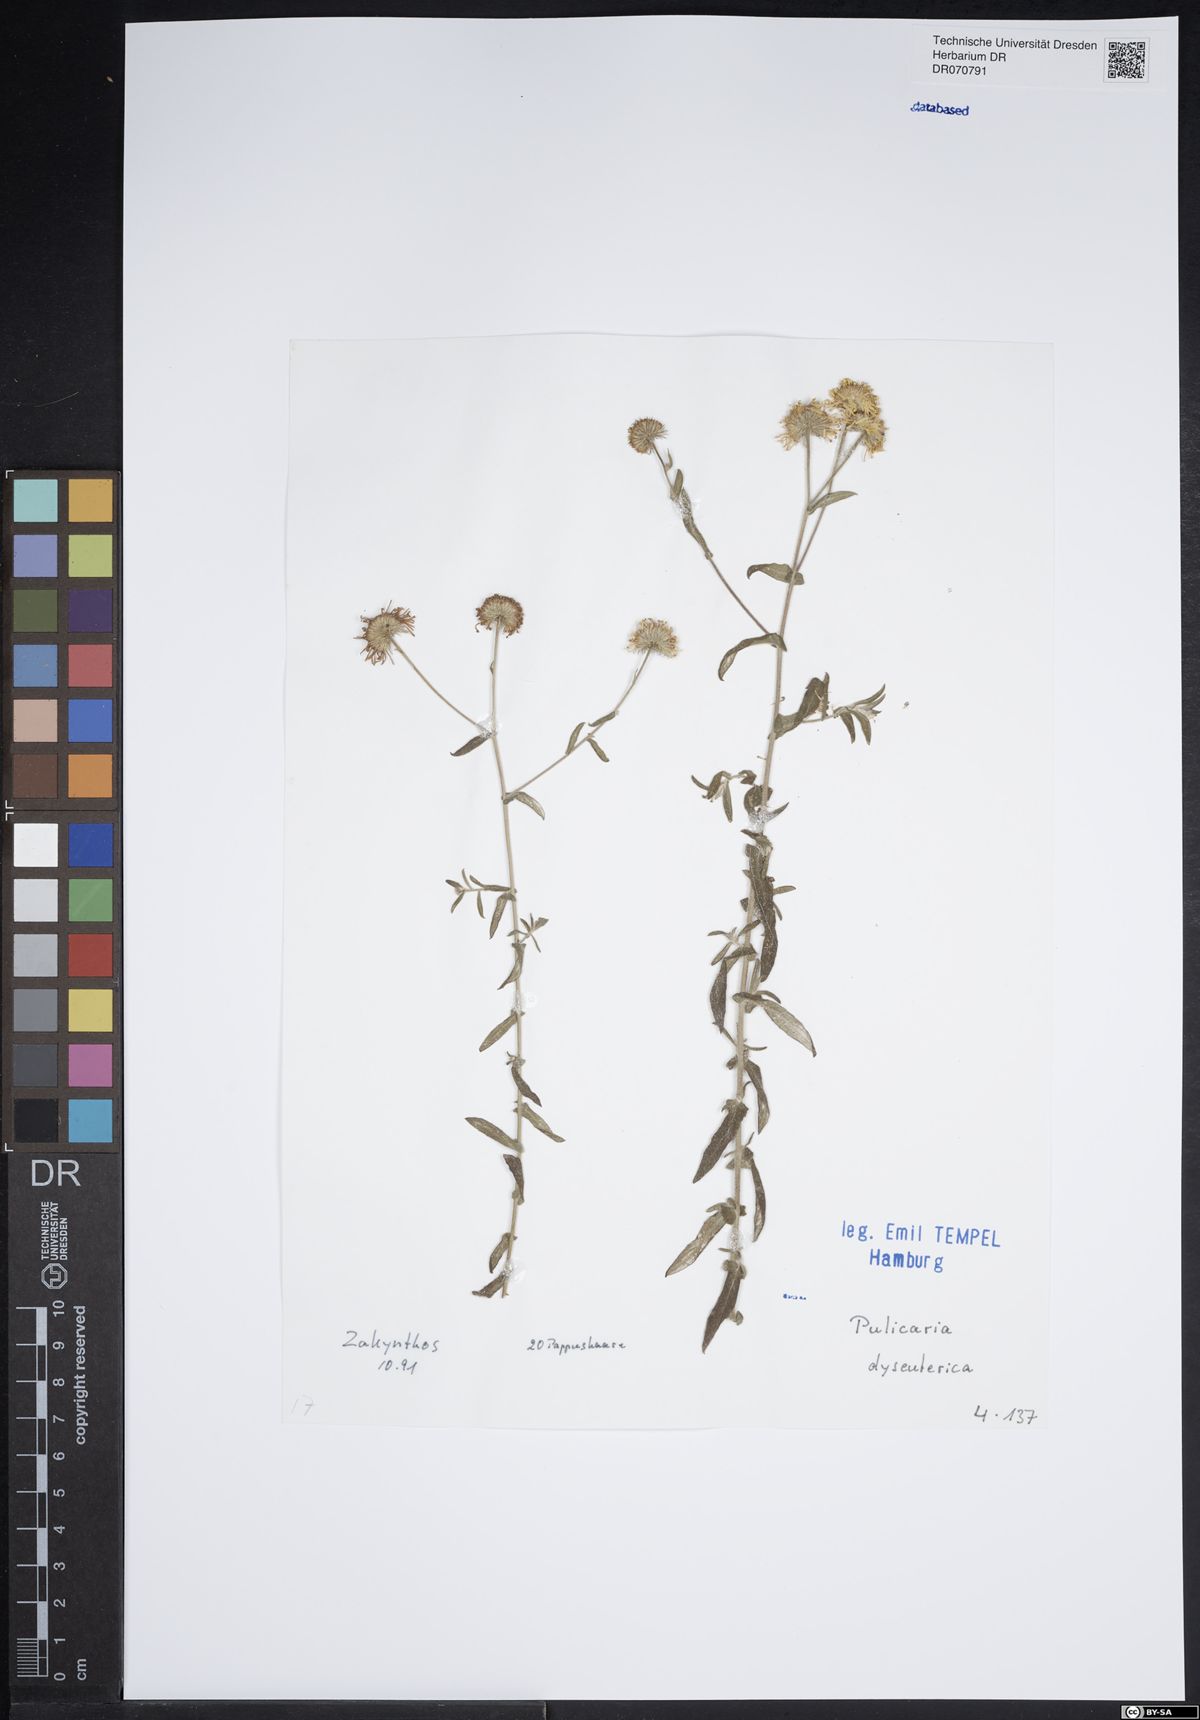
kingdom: Plantae
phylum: Tracheophyta
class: Magnoliopsida
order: Asterales
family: Asteraceae
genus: Pulicaria
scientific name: Pulicaria dysenterica
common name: Common fleabane
